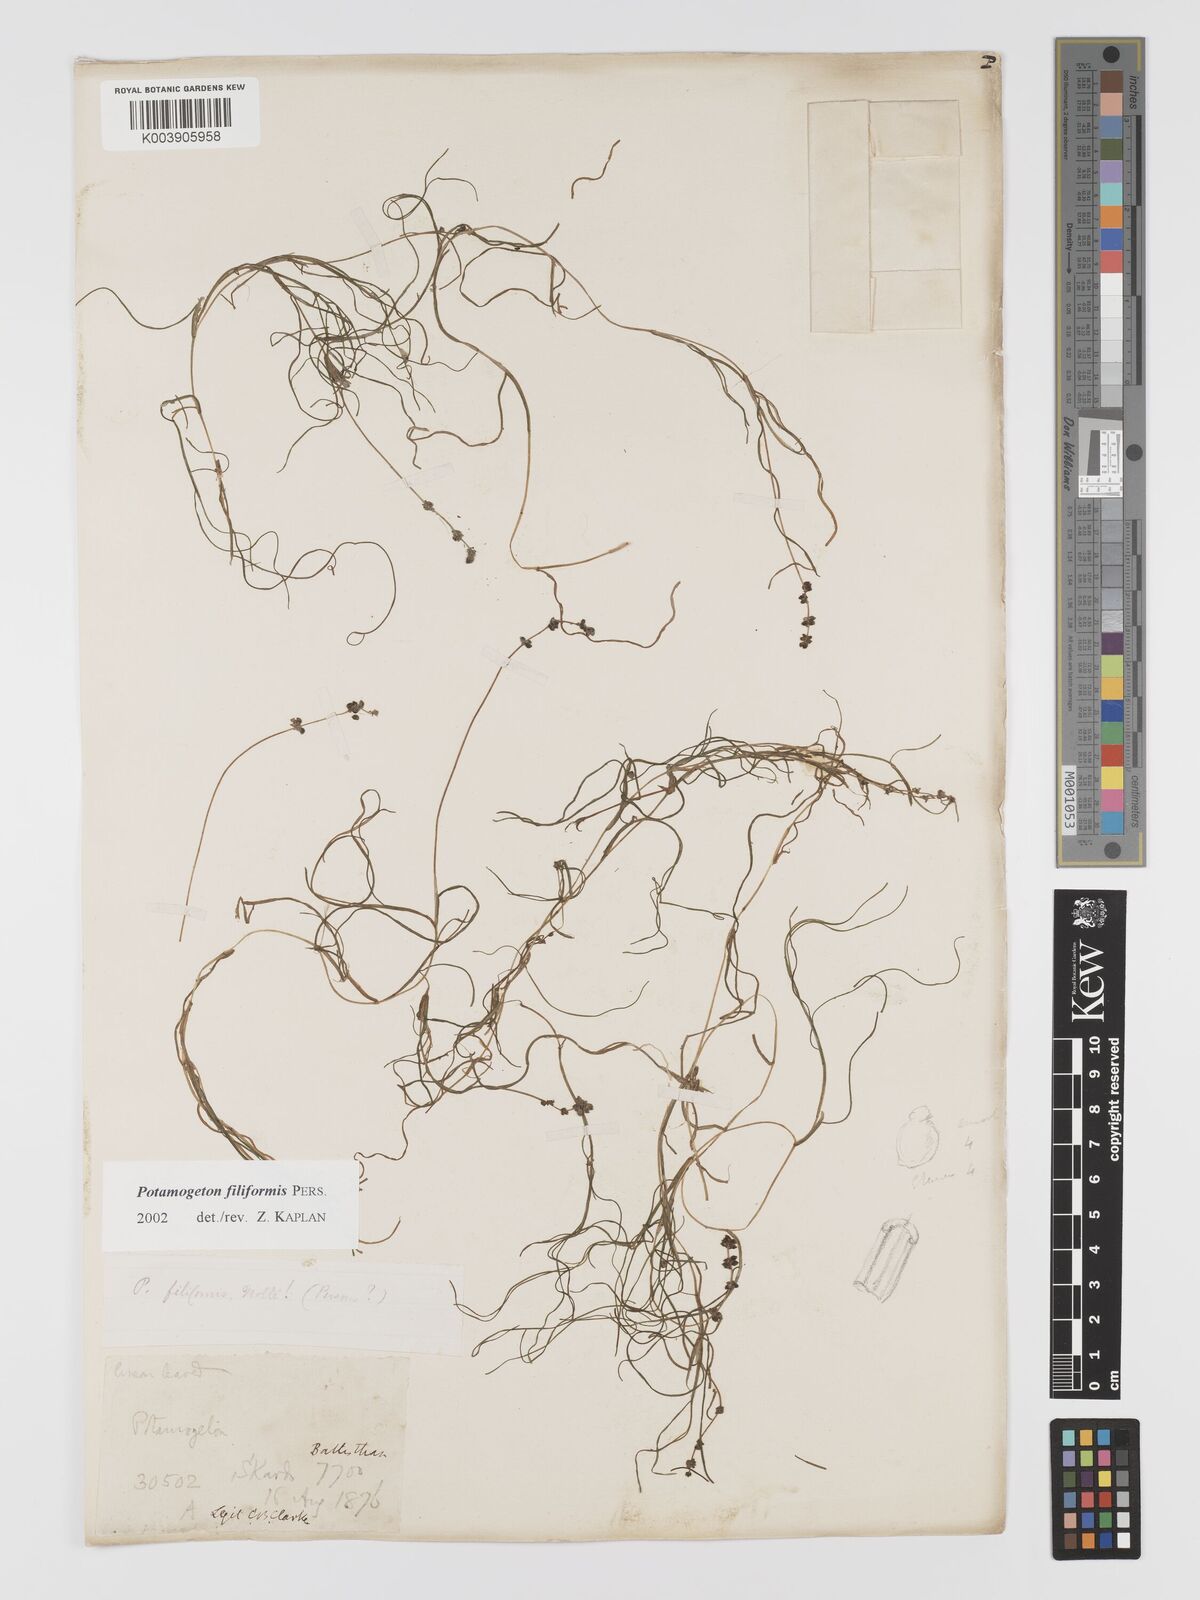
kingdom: Plantae
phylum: Tracheophyta
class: Liliopsida
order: Alismatales
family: Potamogetonaceae
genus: Potamogeton
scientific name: Potamogeton filiformis
